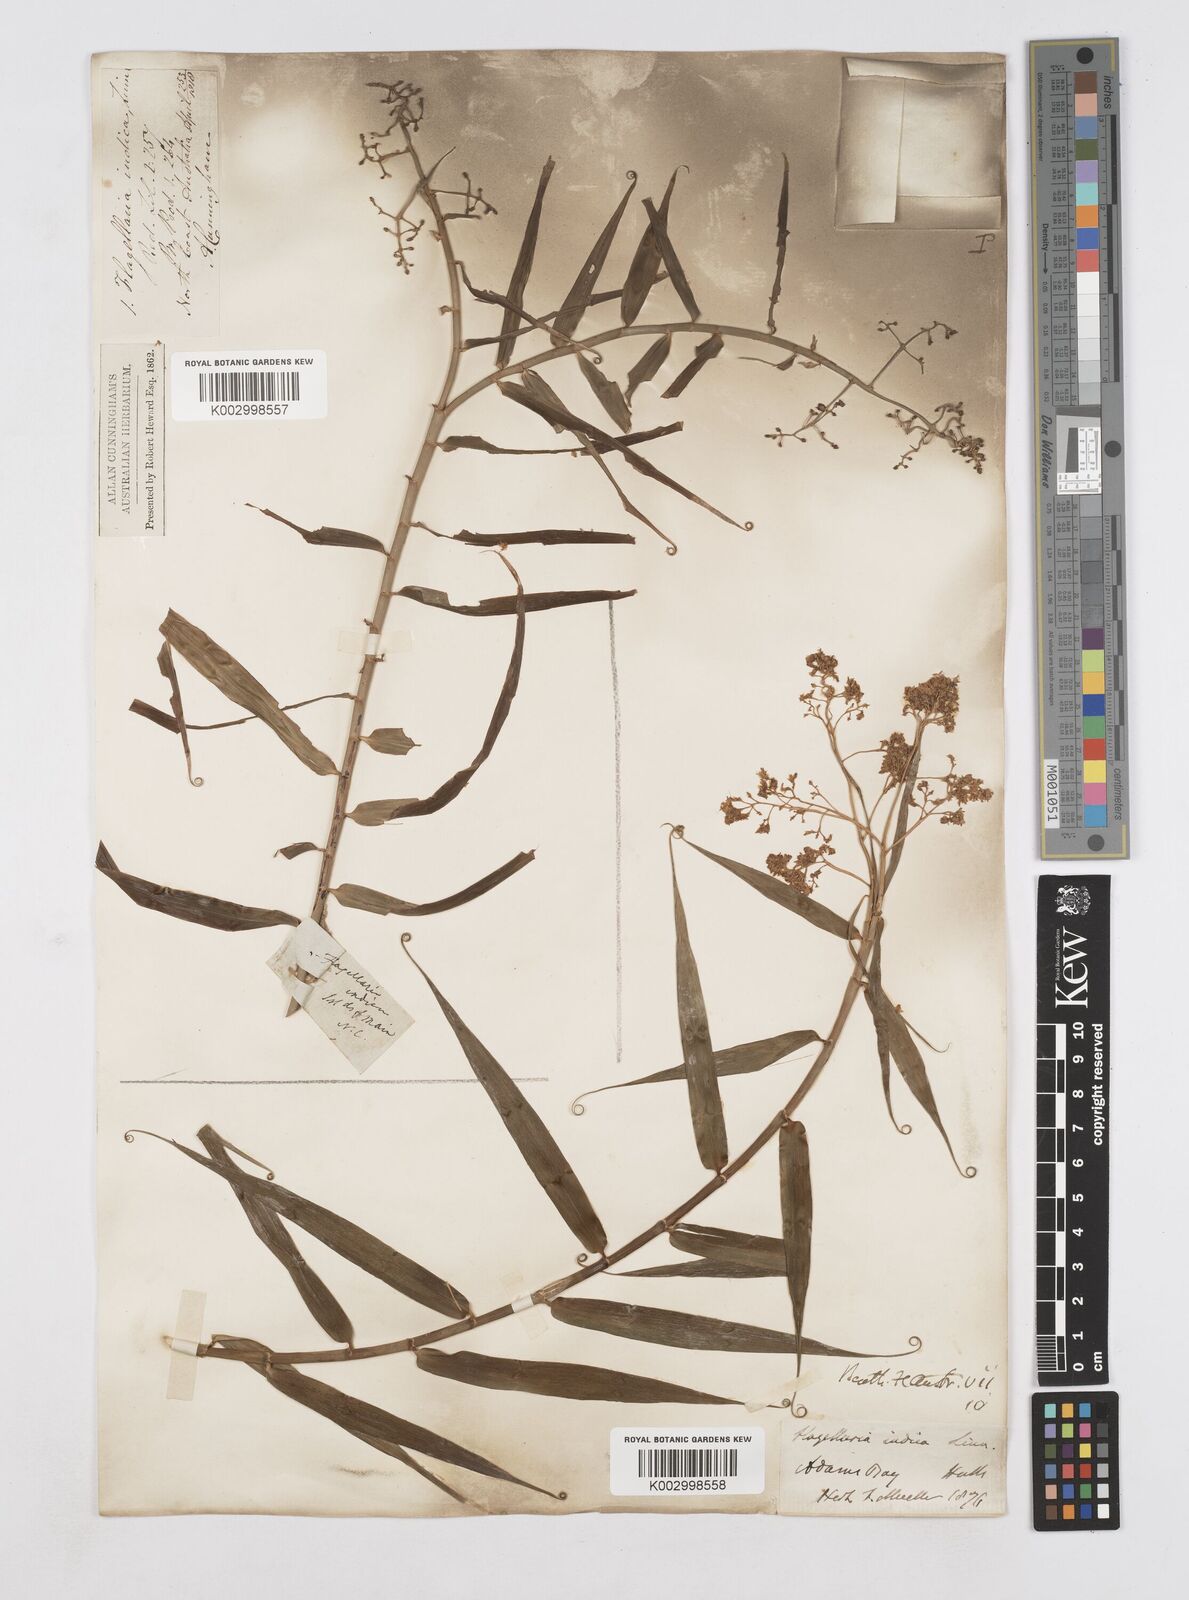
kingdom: Plantae
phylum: Tracheophyta
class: Liliopsida
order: Poales
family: Flagellariaceae
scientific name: Flagellariaceae
